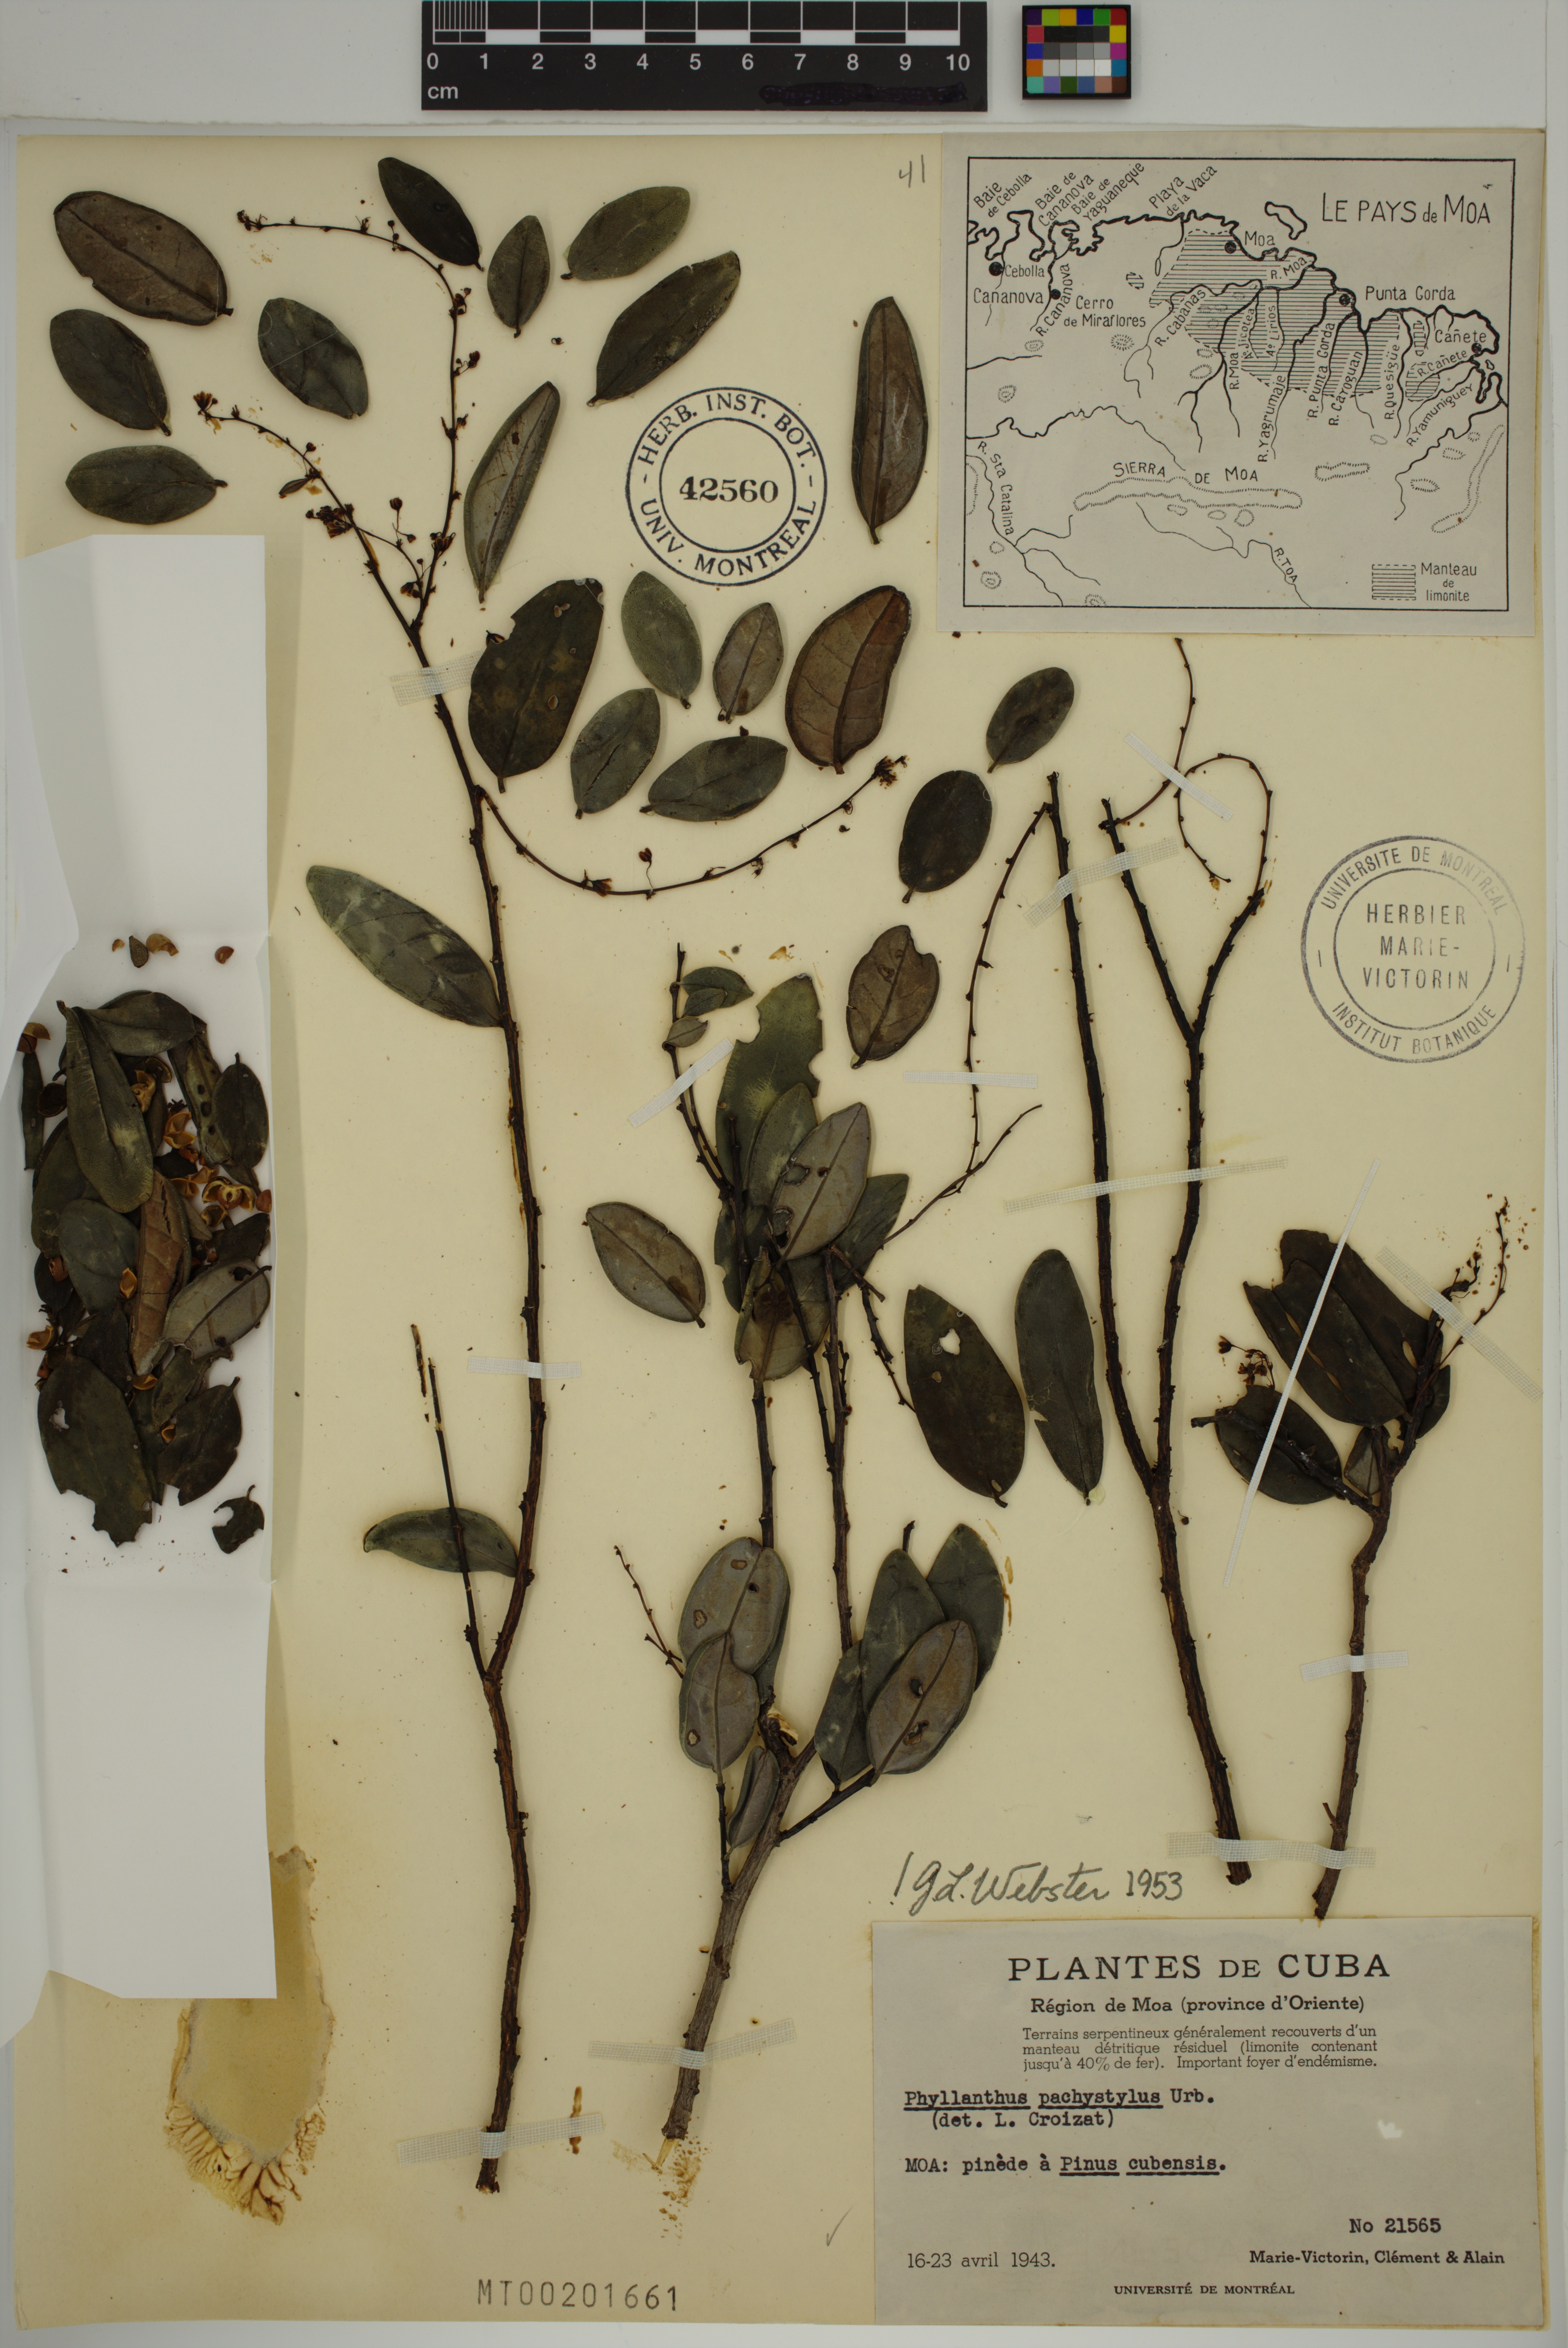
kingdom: Plantae
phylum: Tracheophyta
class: Magnoliopsida
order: Malpighiales
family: Phyllanthaceae
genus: Phyllanthus
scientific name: Phyllanthus pachystylus
